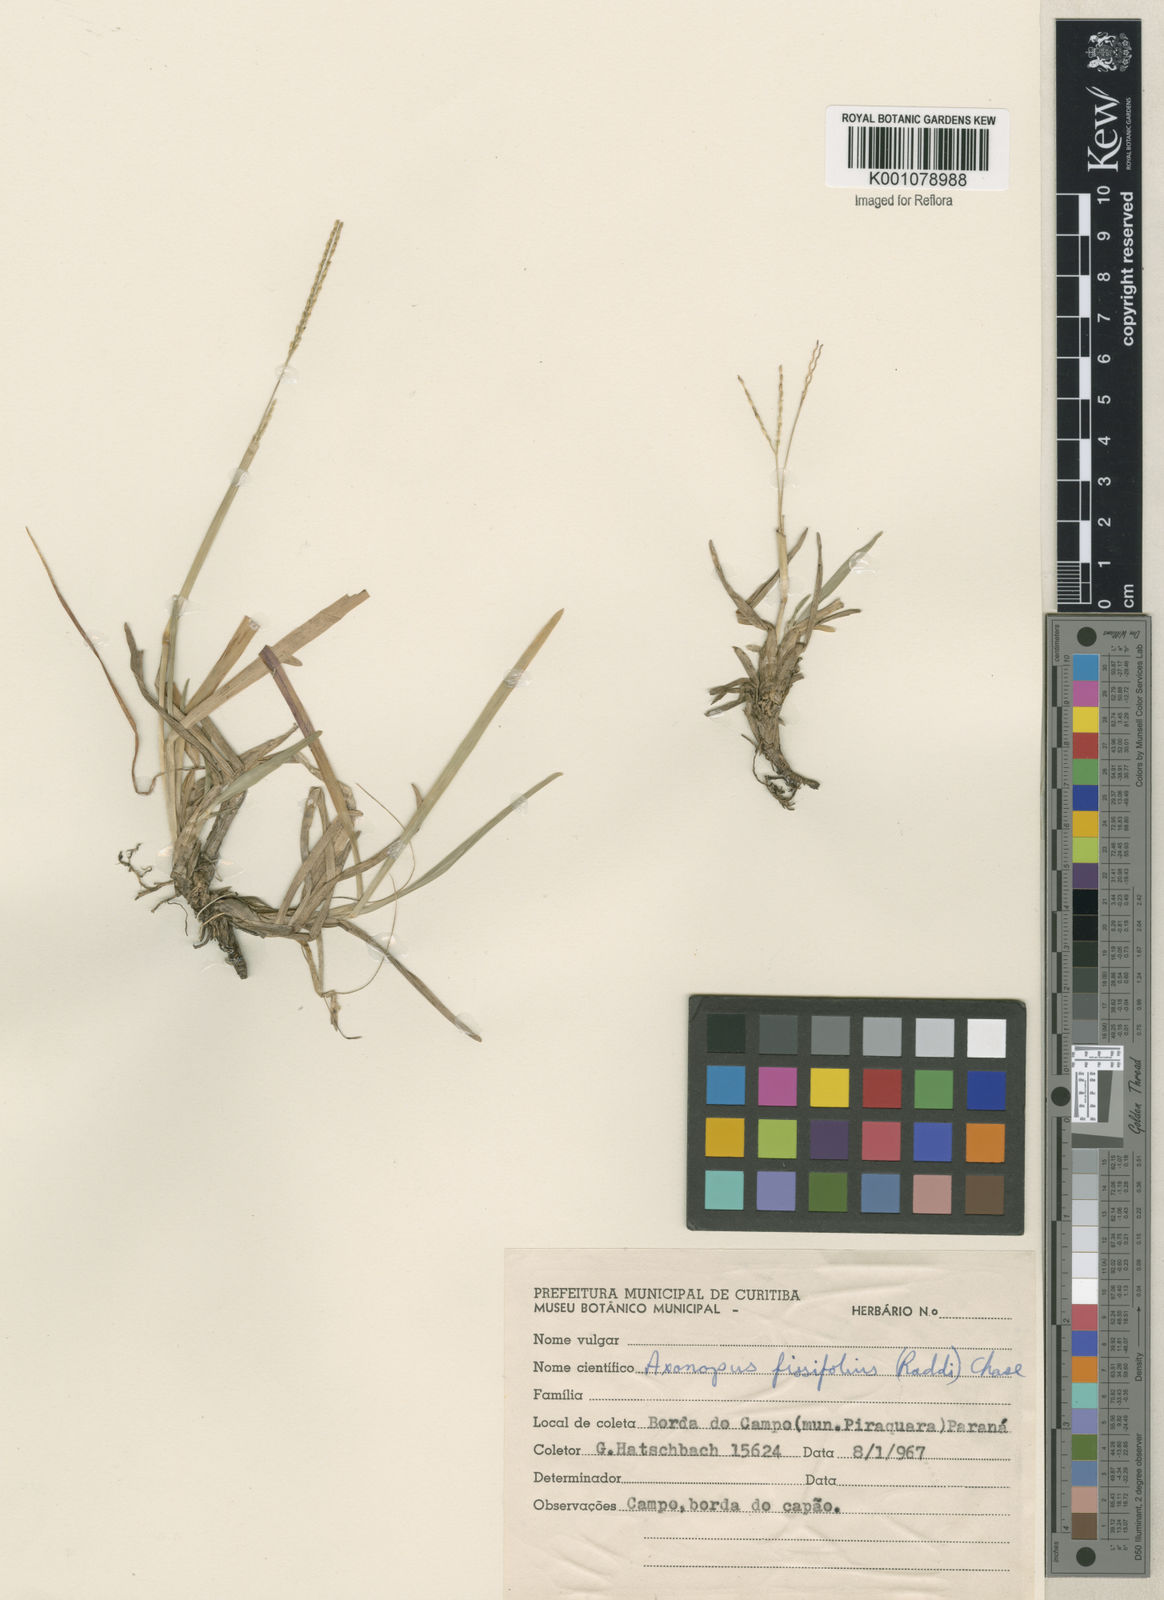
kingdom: Plantae
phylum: Tracheophyta
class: Liliopsida
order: Poales
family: Poaceae
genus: Axonopus
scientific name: Axonopus fissifolius
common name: Common carpetgrass
